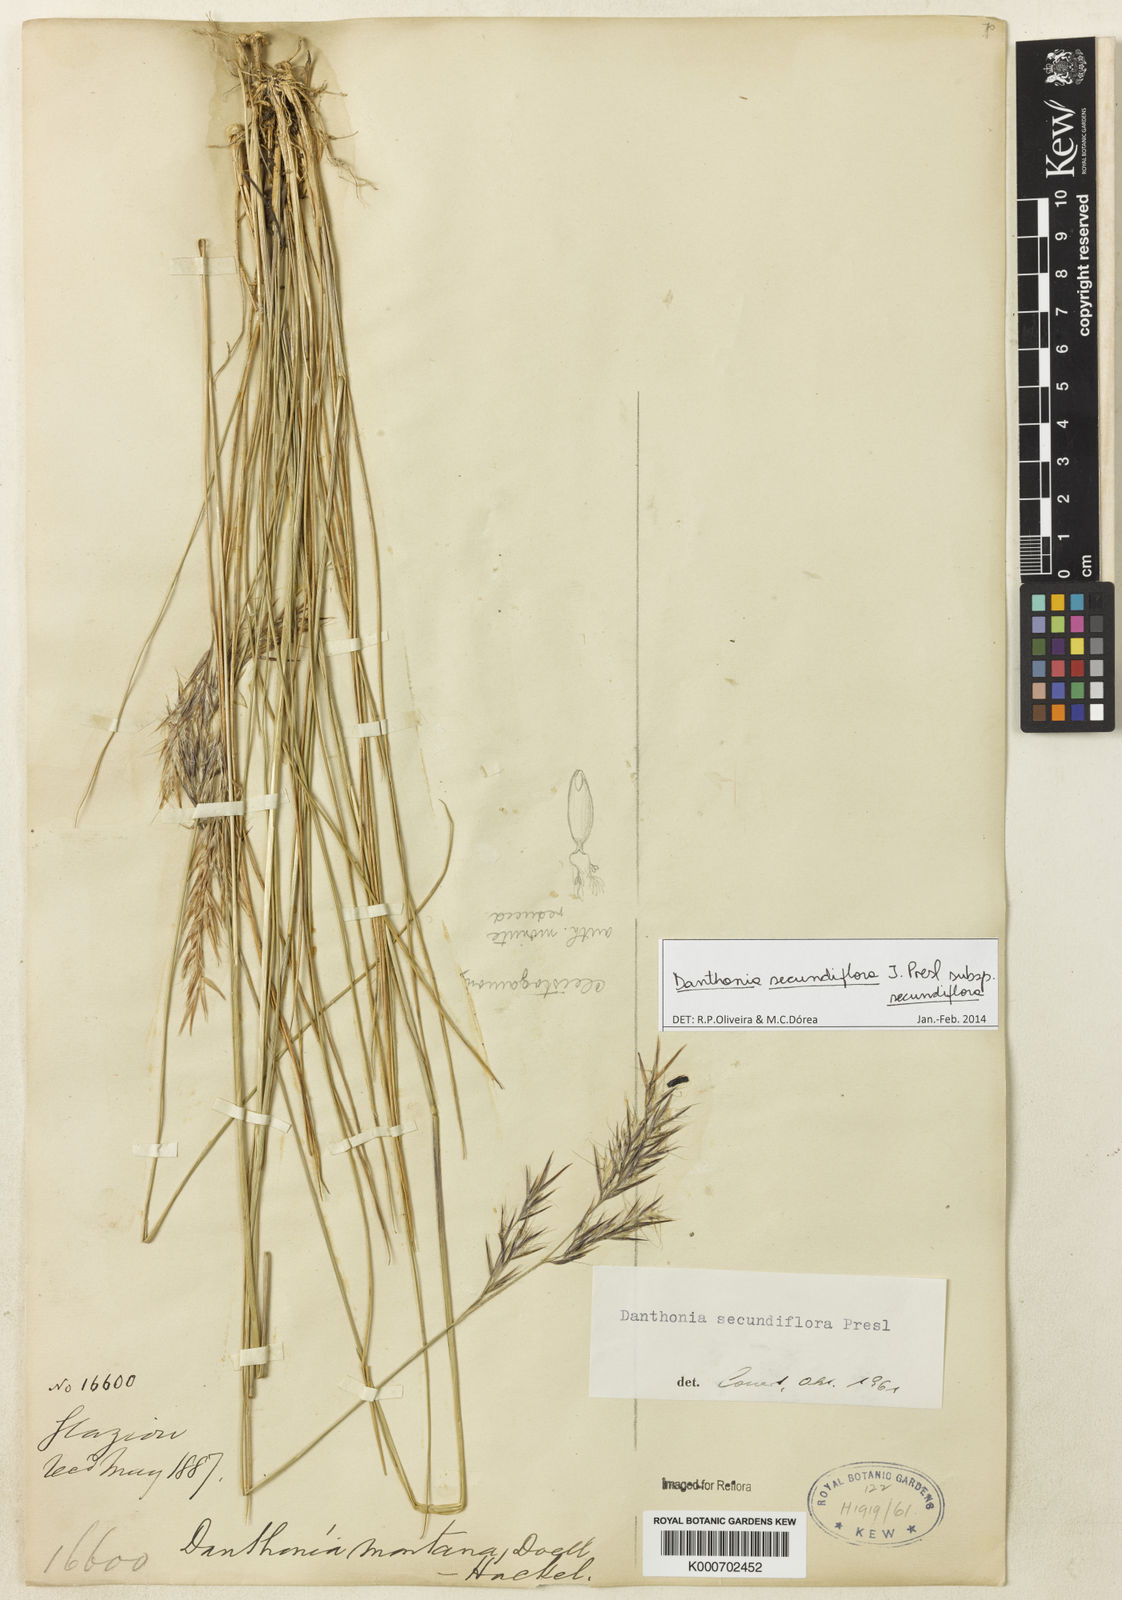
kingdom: Plantae
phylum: Tracheophyta
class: Liliopsida
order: Poales
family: Poaceae
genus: Danthonia
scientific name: Danthonia secundiflora
